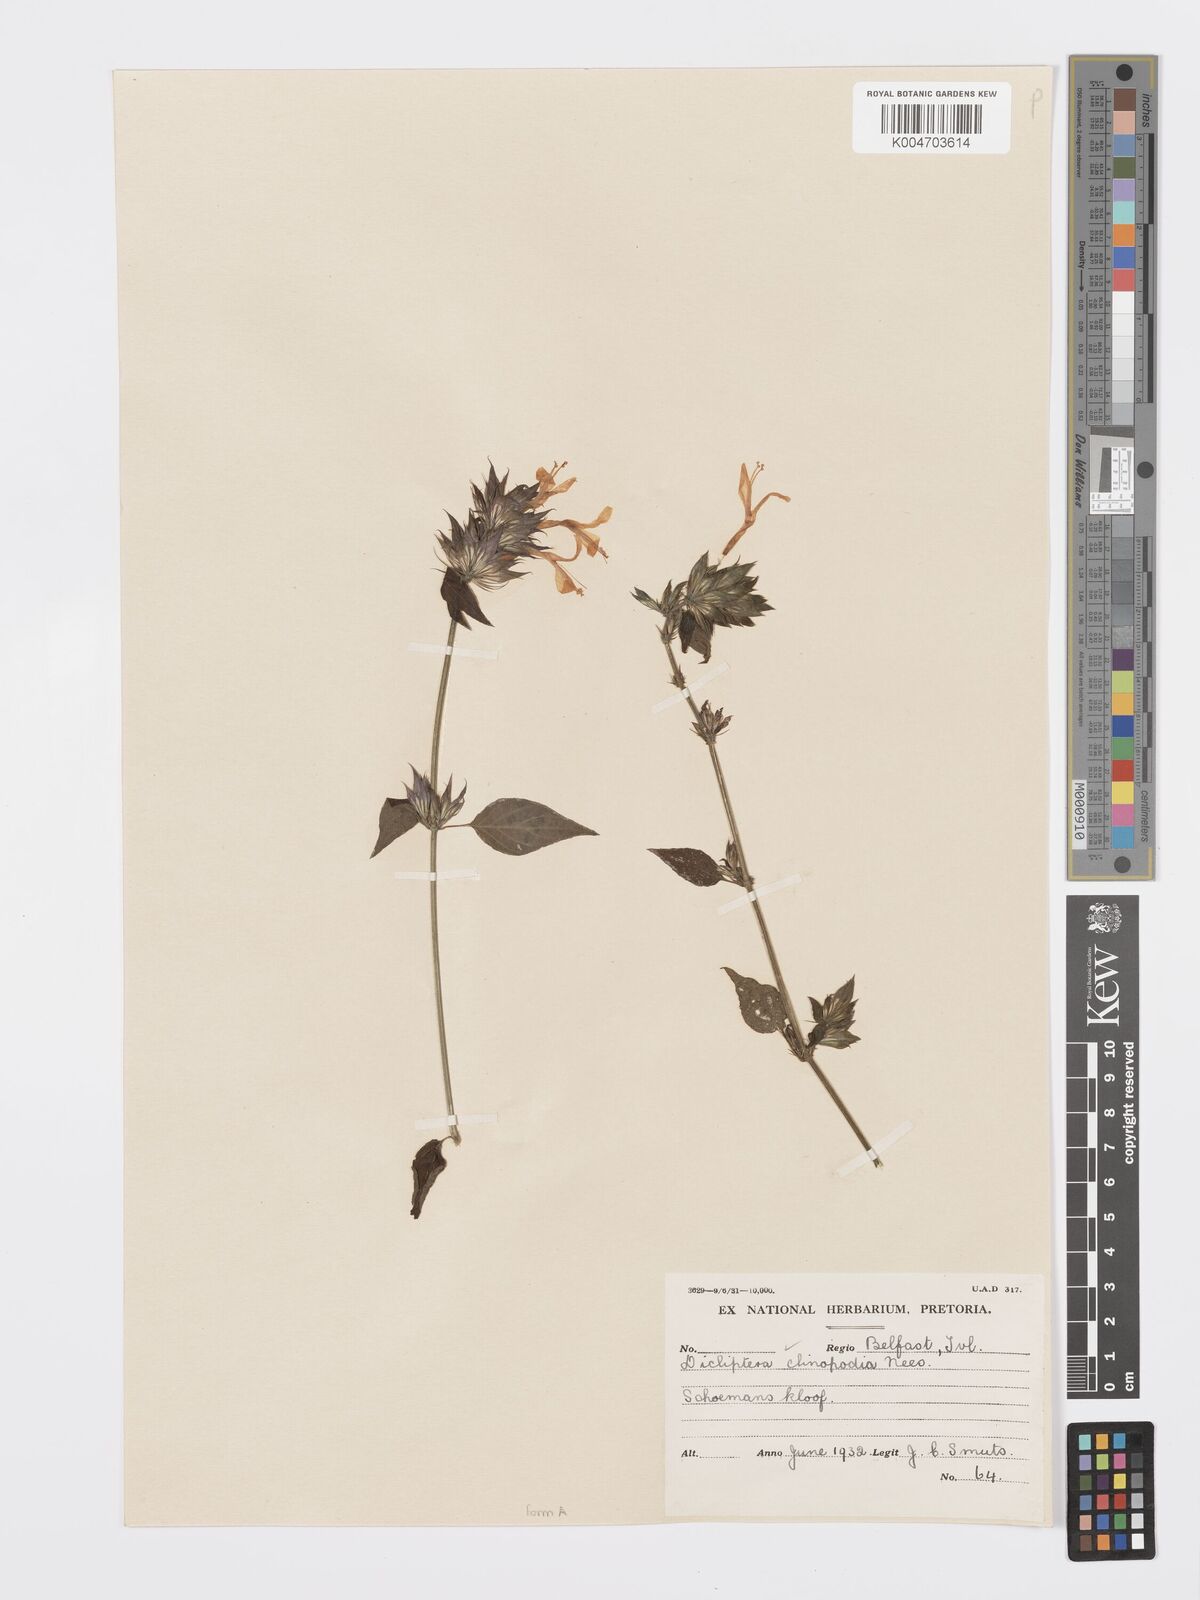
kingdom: Plantae
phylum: Tracheophyta
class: Magnoliopsida
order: Lamiales
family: Acanthaceae
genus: Dicliptera
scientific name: Dicliptera clinopodia
